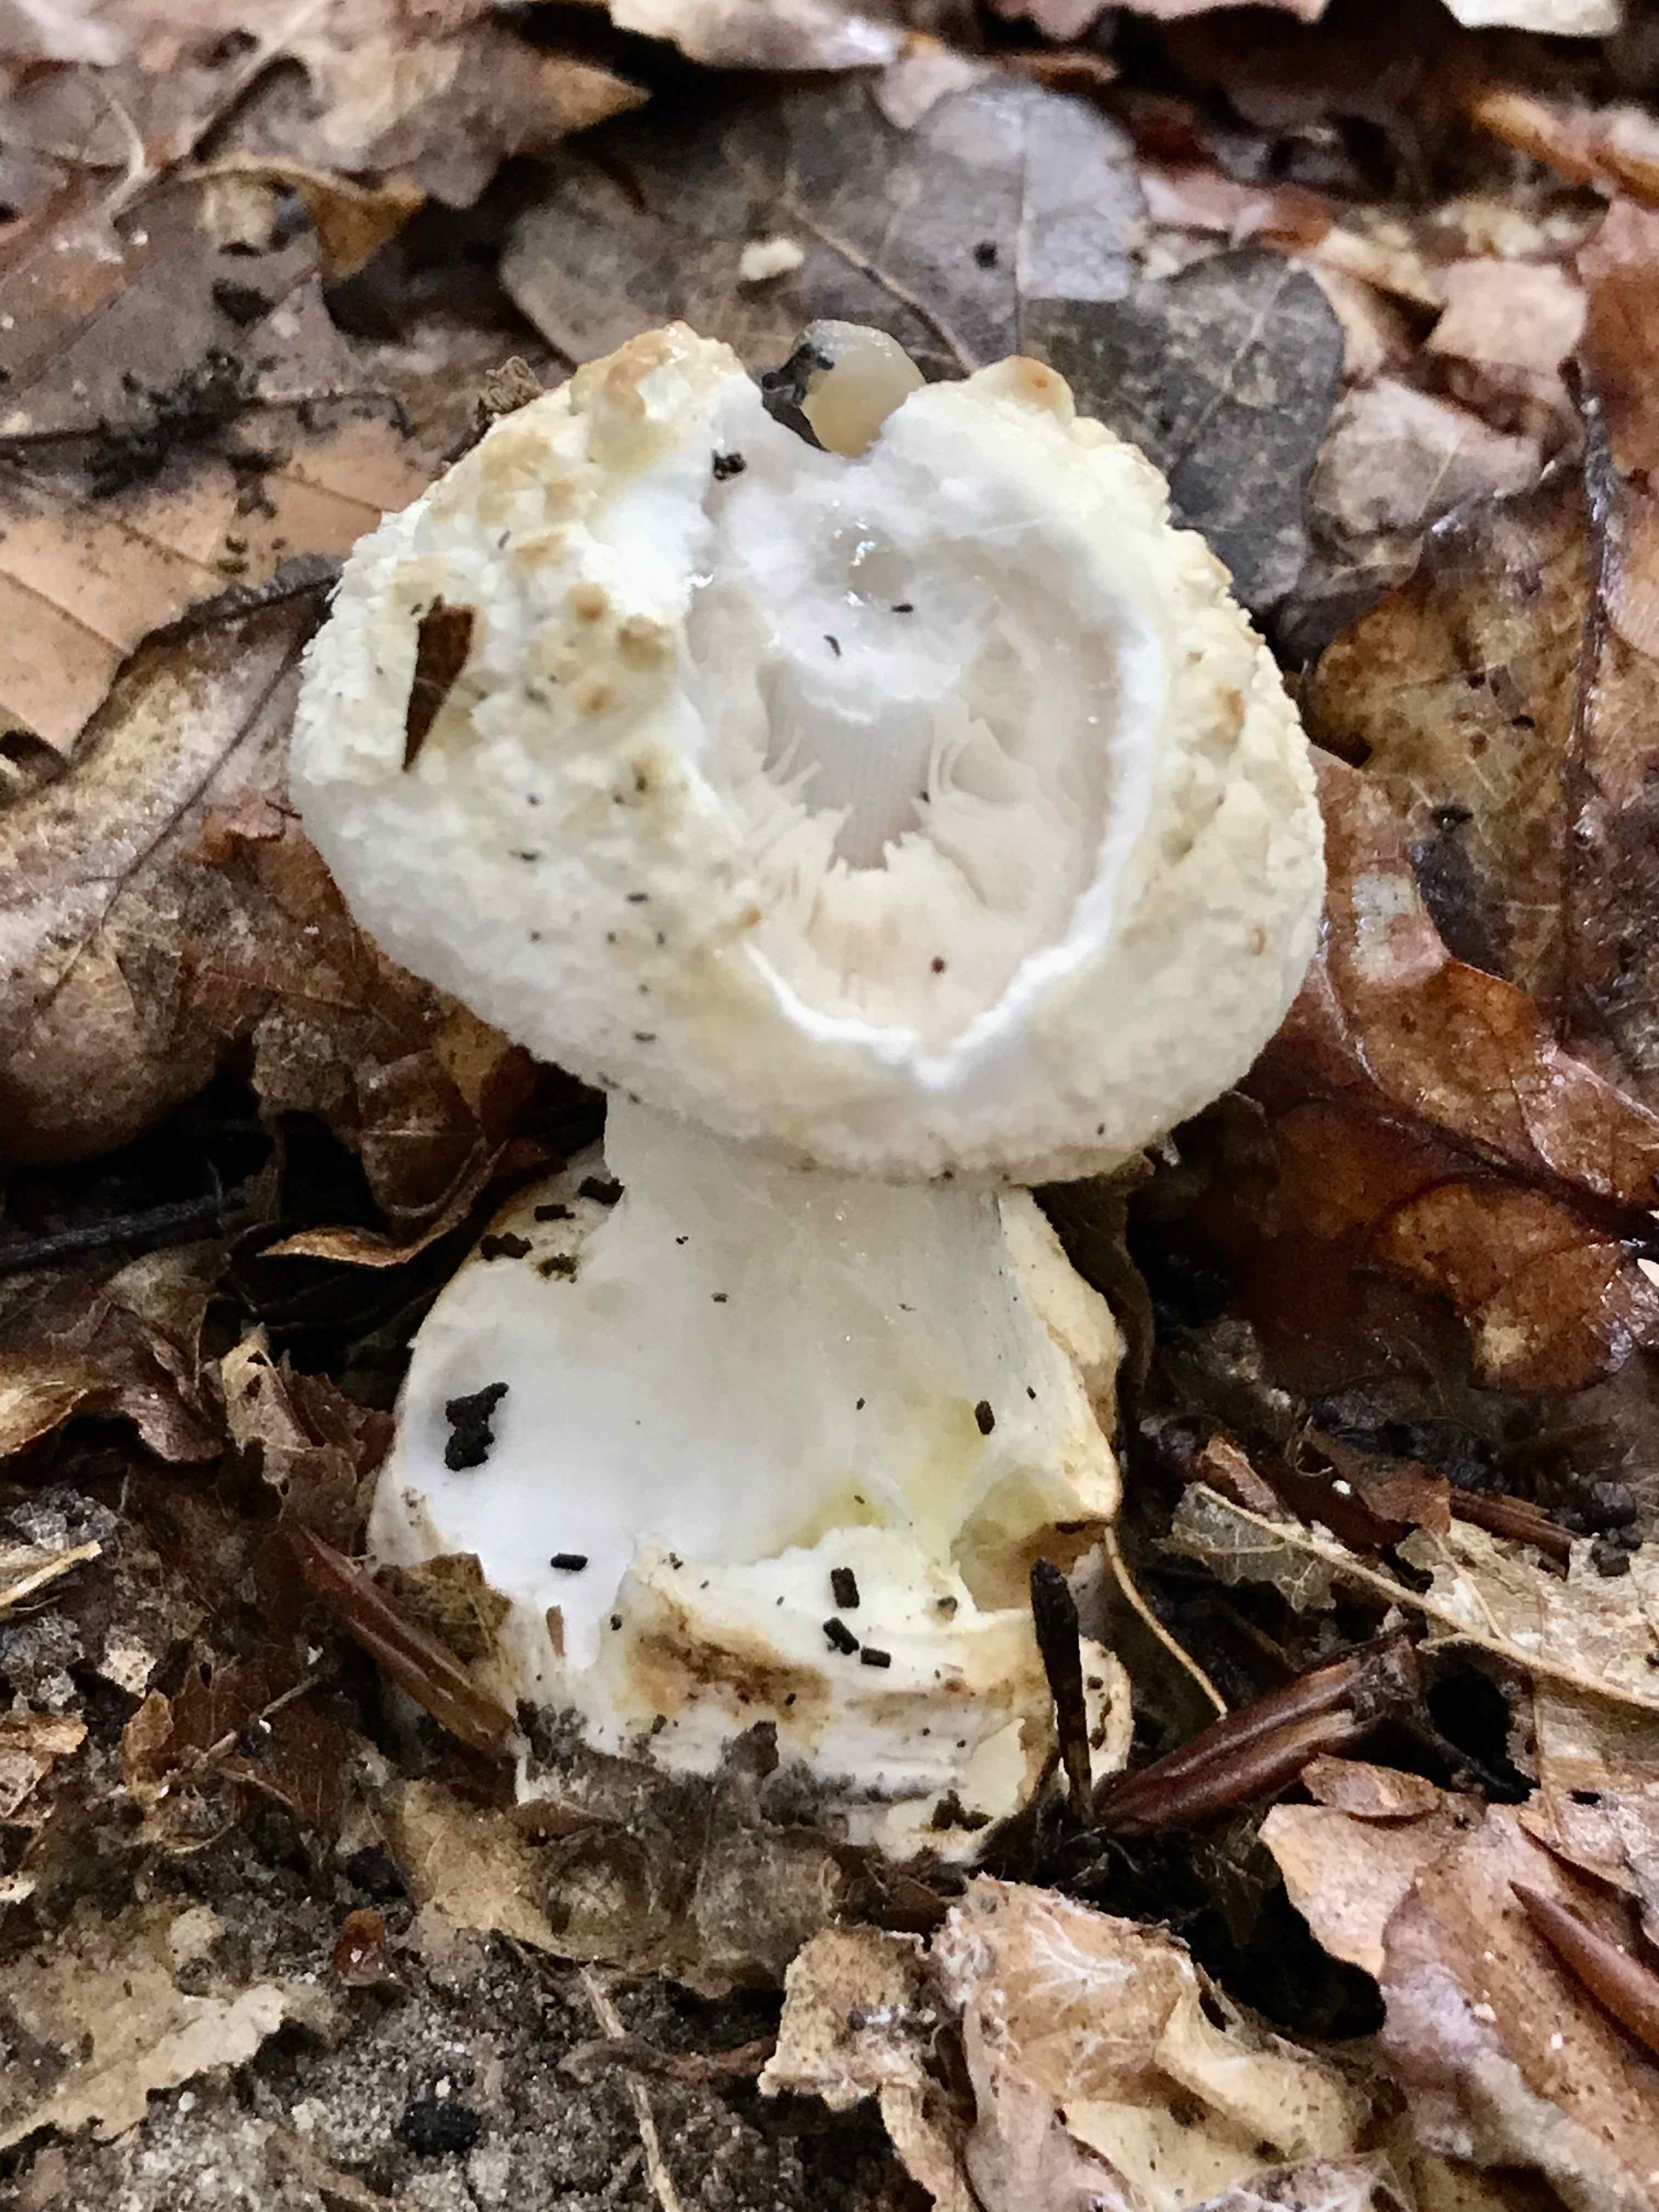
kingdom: Fungi
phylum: Basidiomycota
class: Agaricomycetes
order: Agaricales
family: Amanitaceae
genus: Amanita
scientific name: Amanita citrina
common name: kugleknoldet fluesvamp
